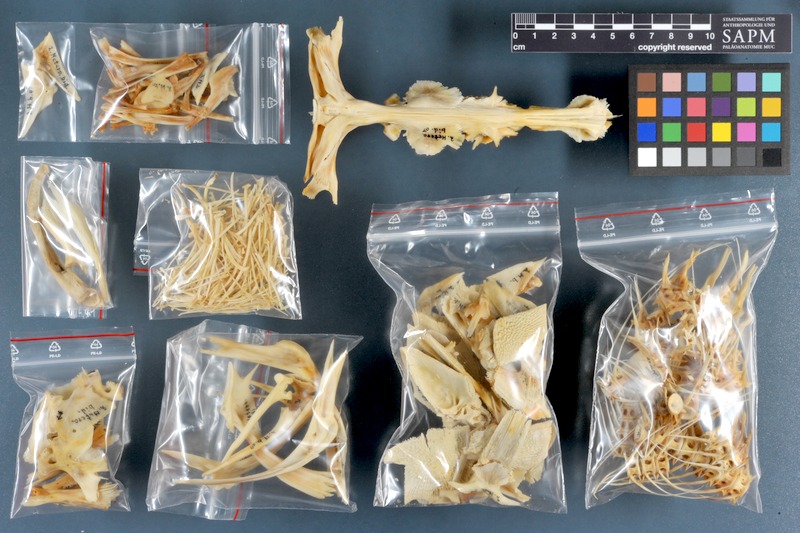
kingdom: Animalia
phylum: Chordata
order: Siluriformes
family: Clariidae
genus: Heterobranchus
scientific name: Heterobranchus bidorsalis
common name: Eel-like fattyfin catfish
